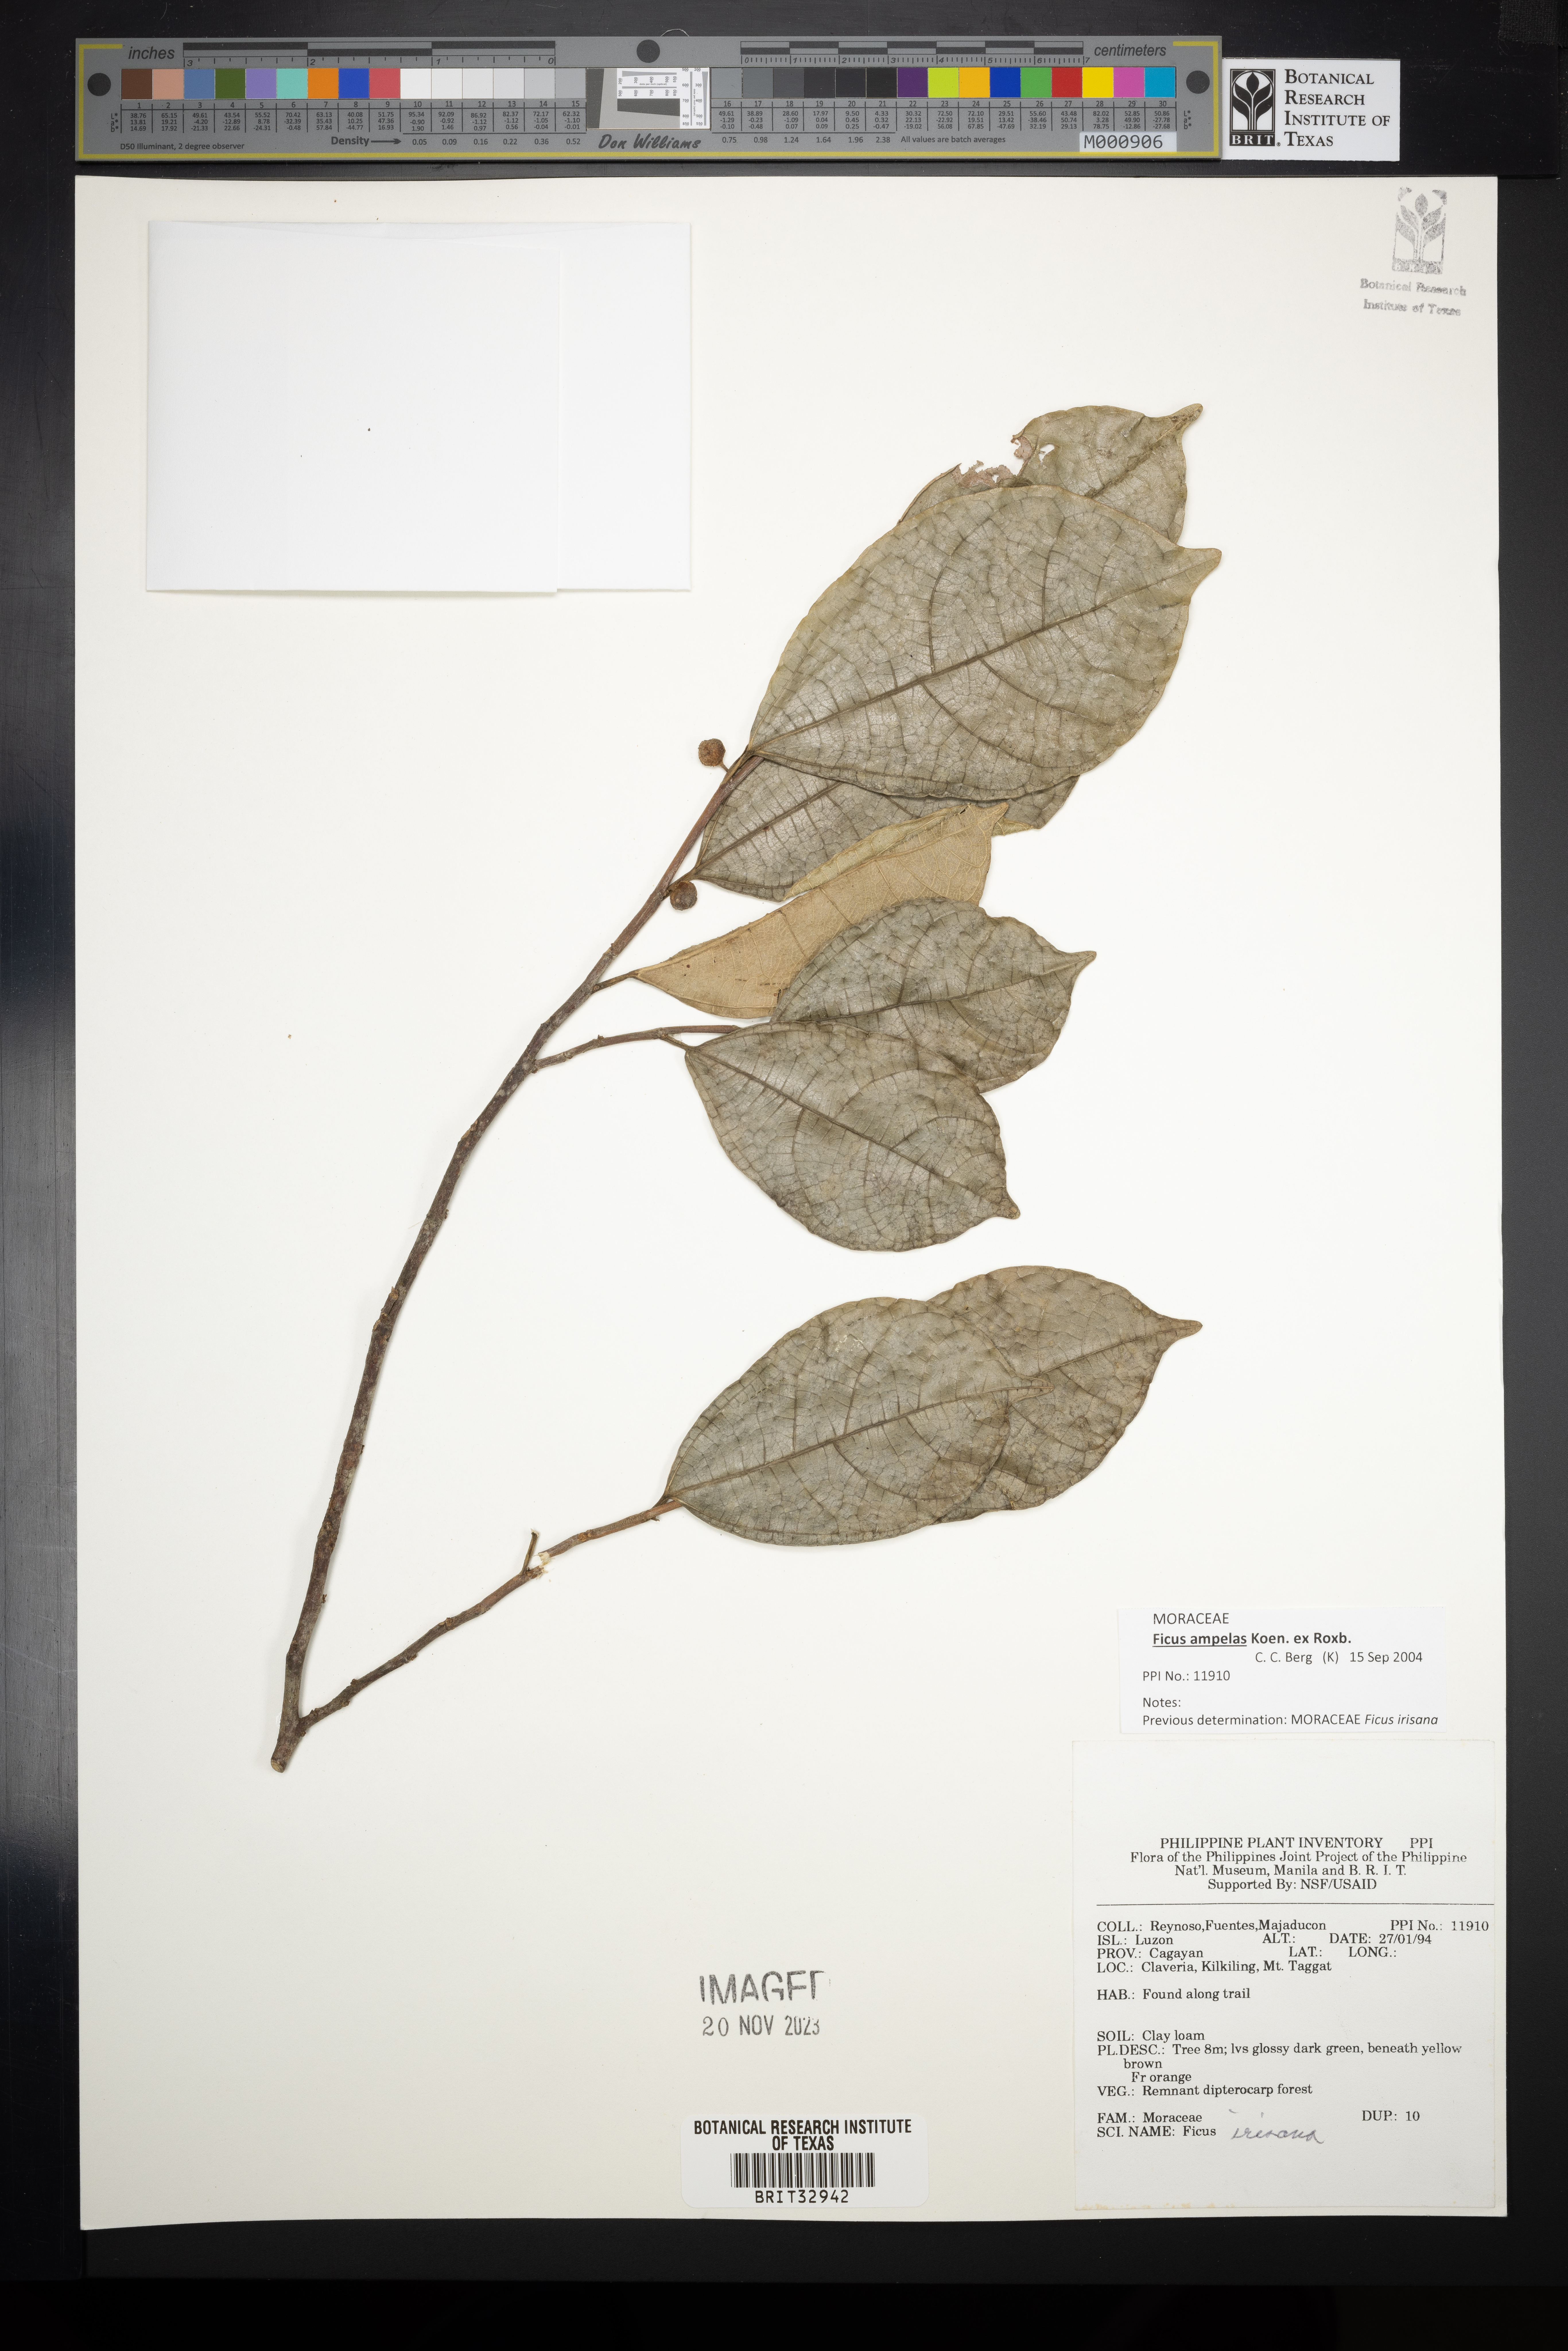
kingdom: Plantae
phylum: Tracheophyta
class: Magnoliopsida
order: Rosales
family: Moraceae
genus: Ficus
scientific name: Ficus ampelos
